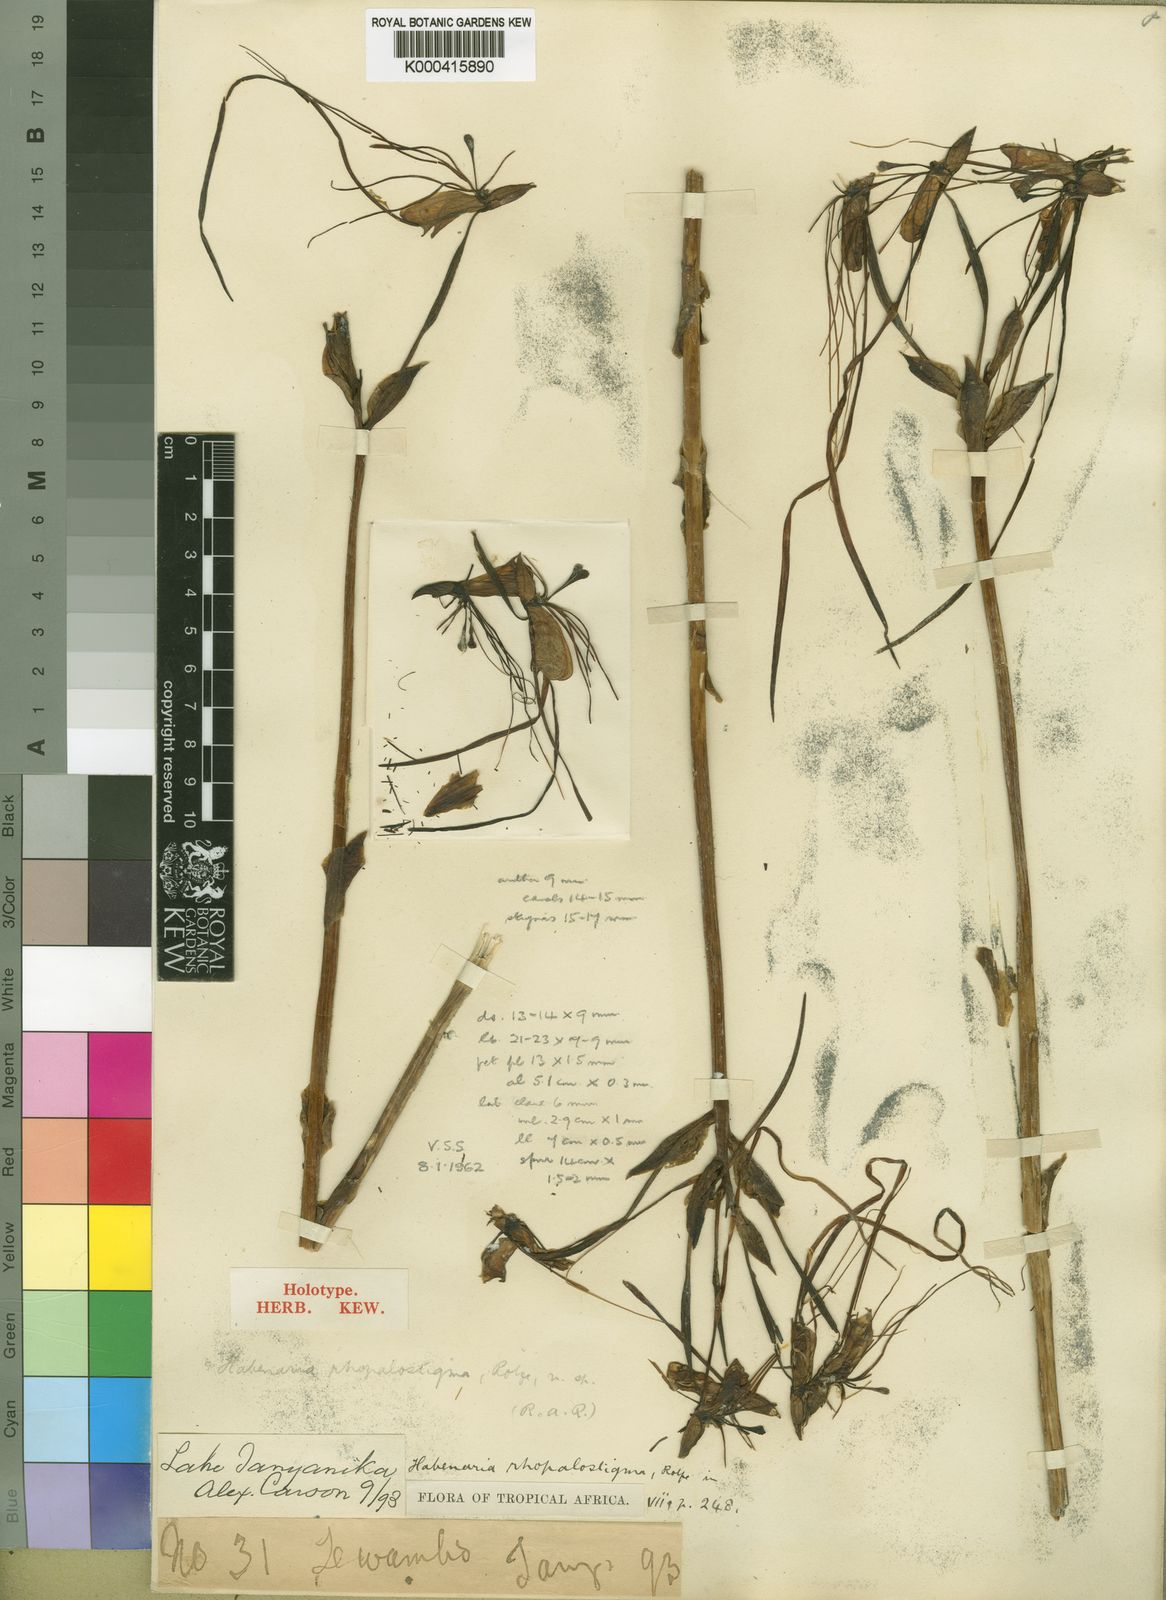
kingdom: Plantae
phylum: Tracheophyta
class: Liliopsida
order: Asparagales
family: Orchidaceae
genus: Habenaria
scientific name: Habenaria
